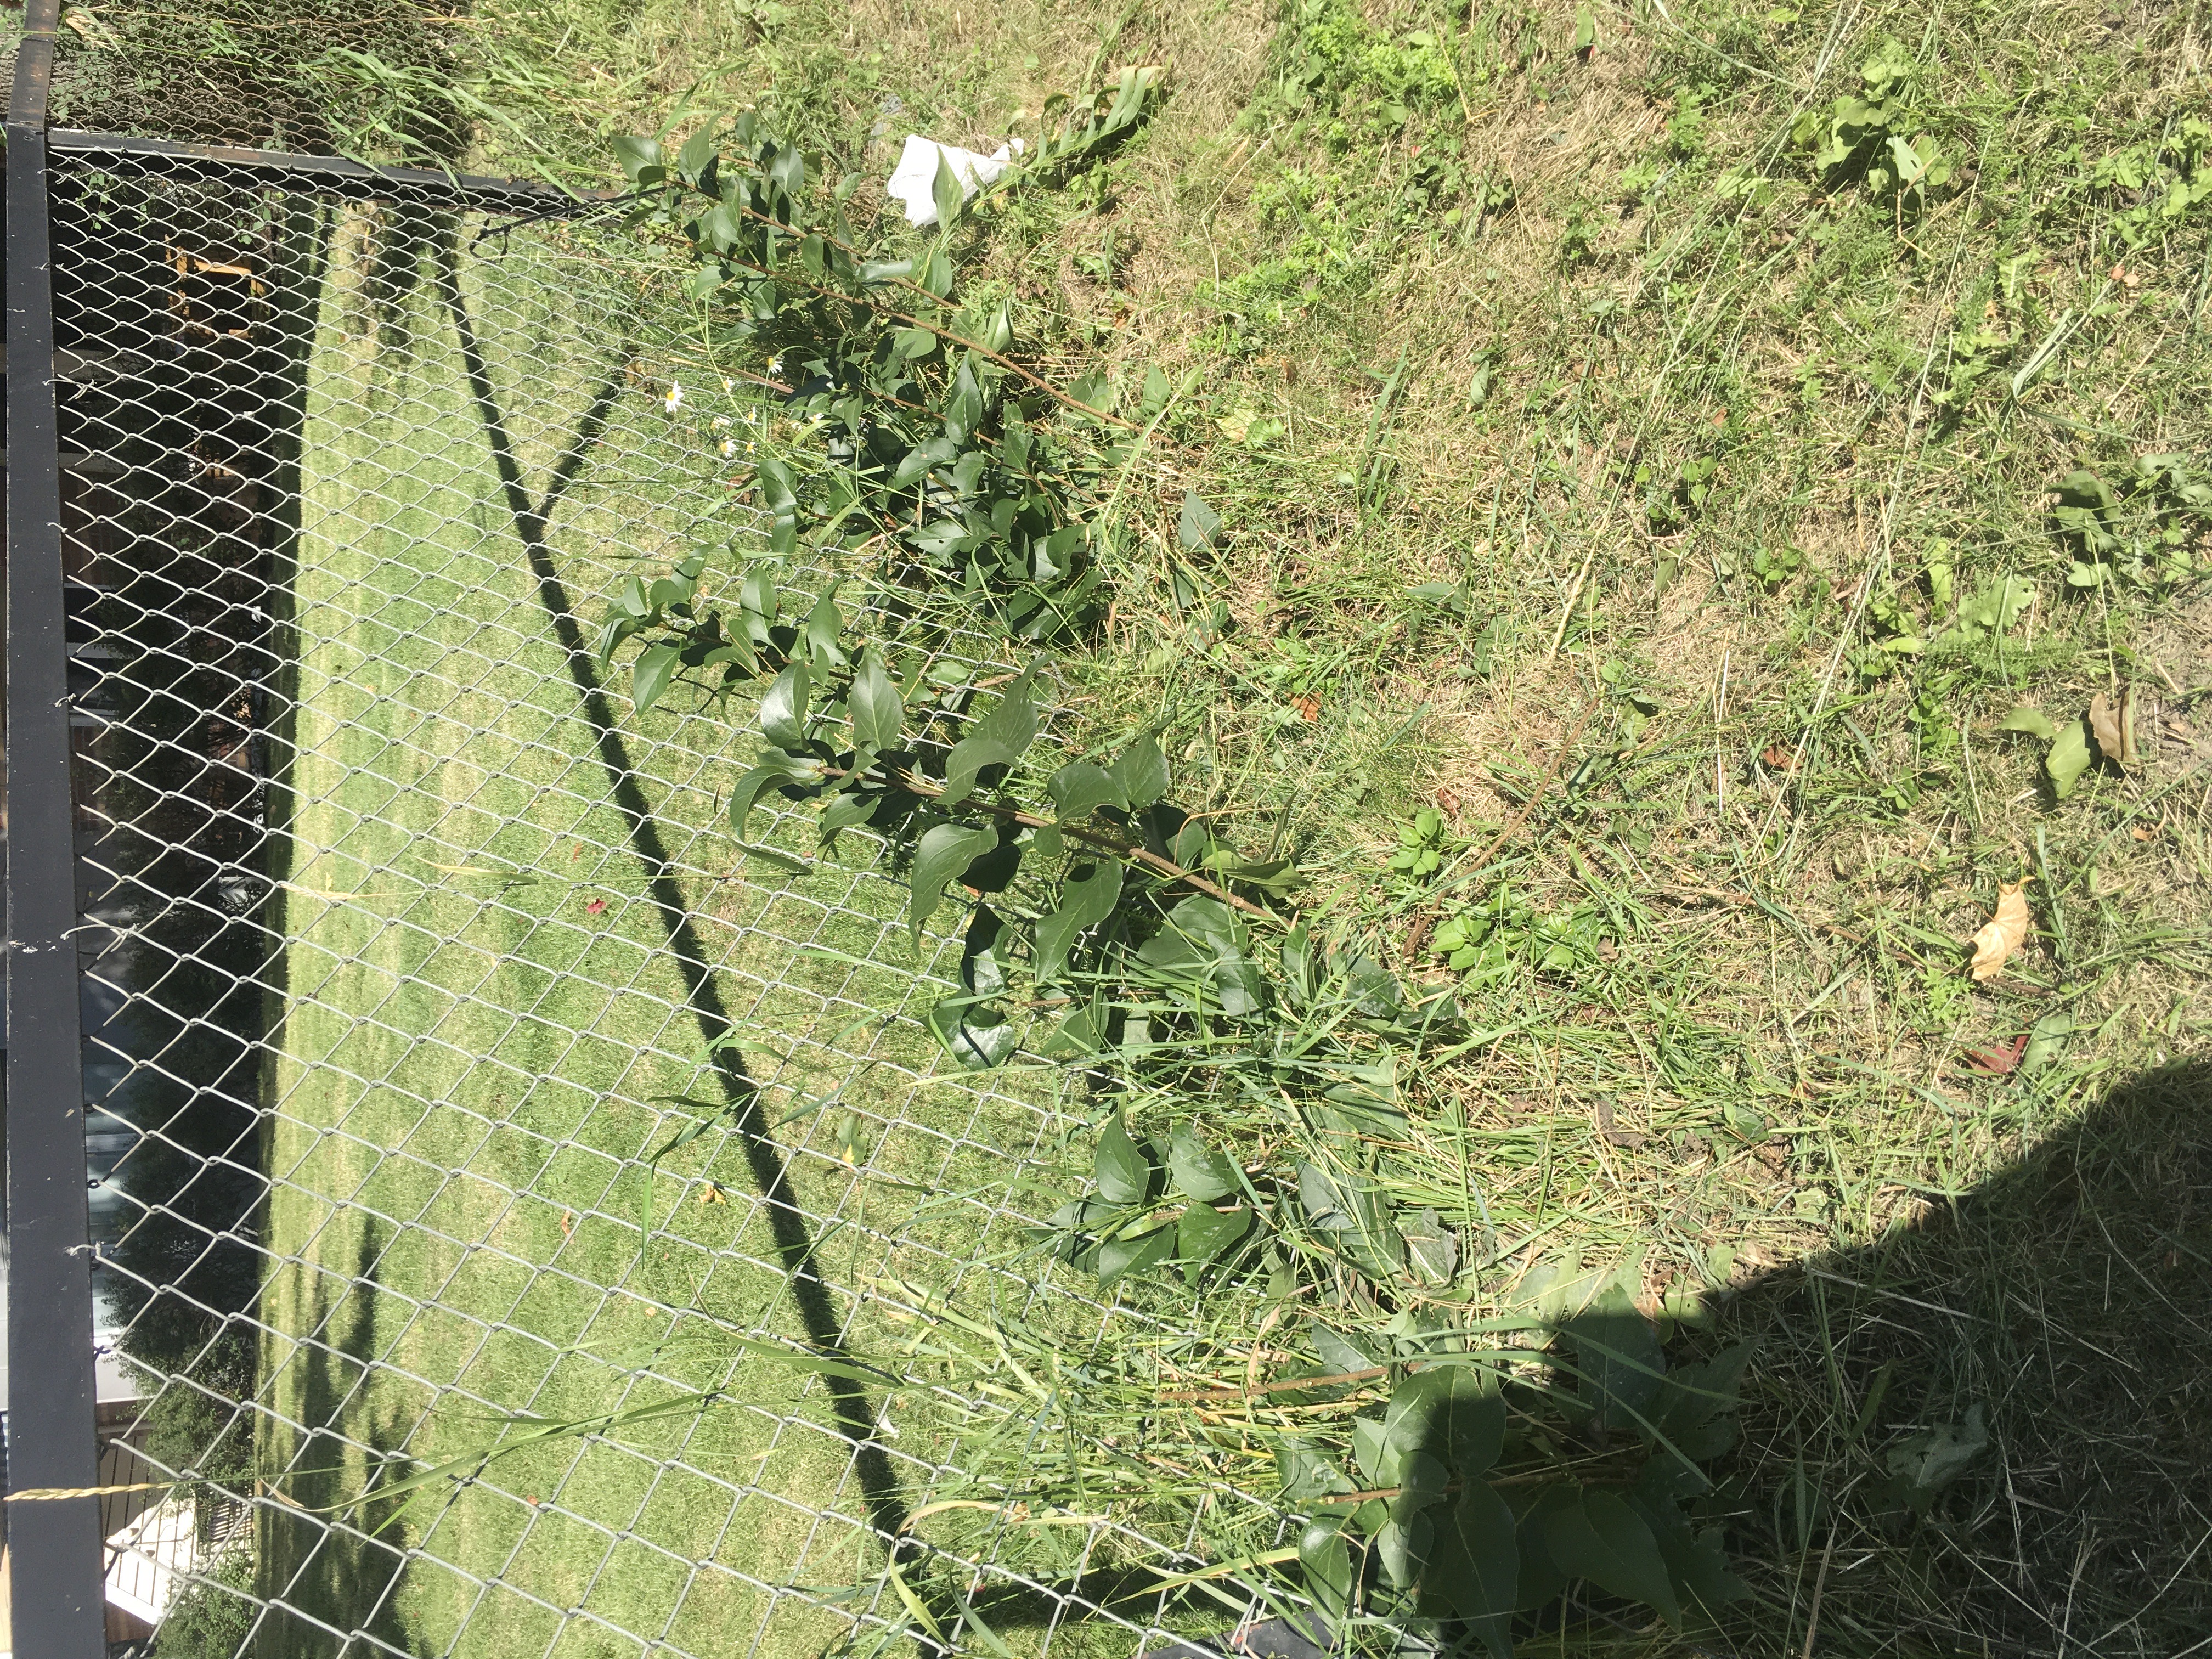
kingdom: Plantae
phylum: Tracheophyta
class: Magnoliopsida
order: Lamiales
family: Oleaceae
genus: Syringa
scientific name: Syringa vulgaris
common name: syrin
